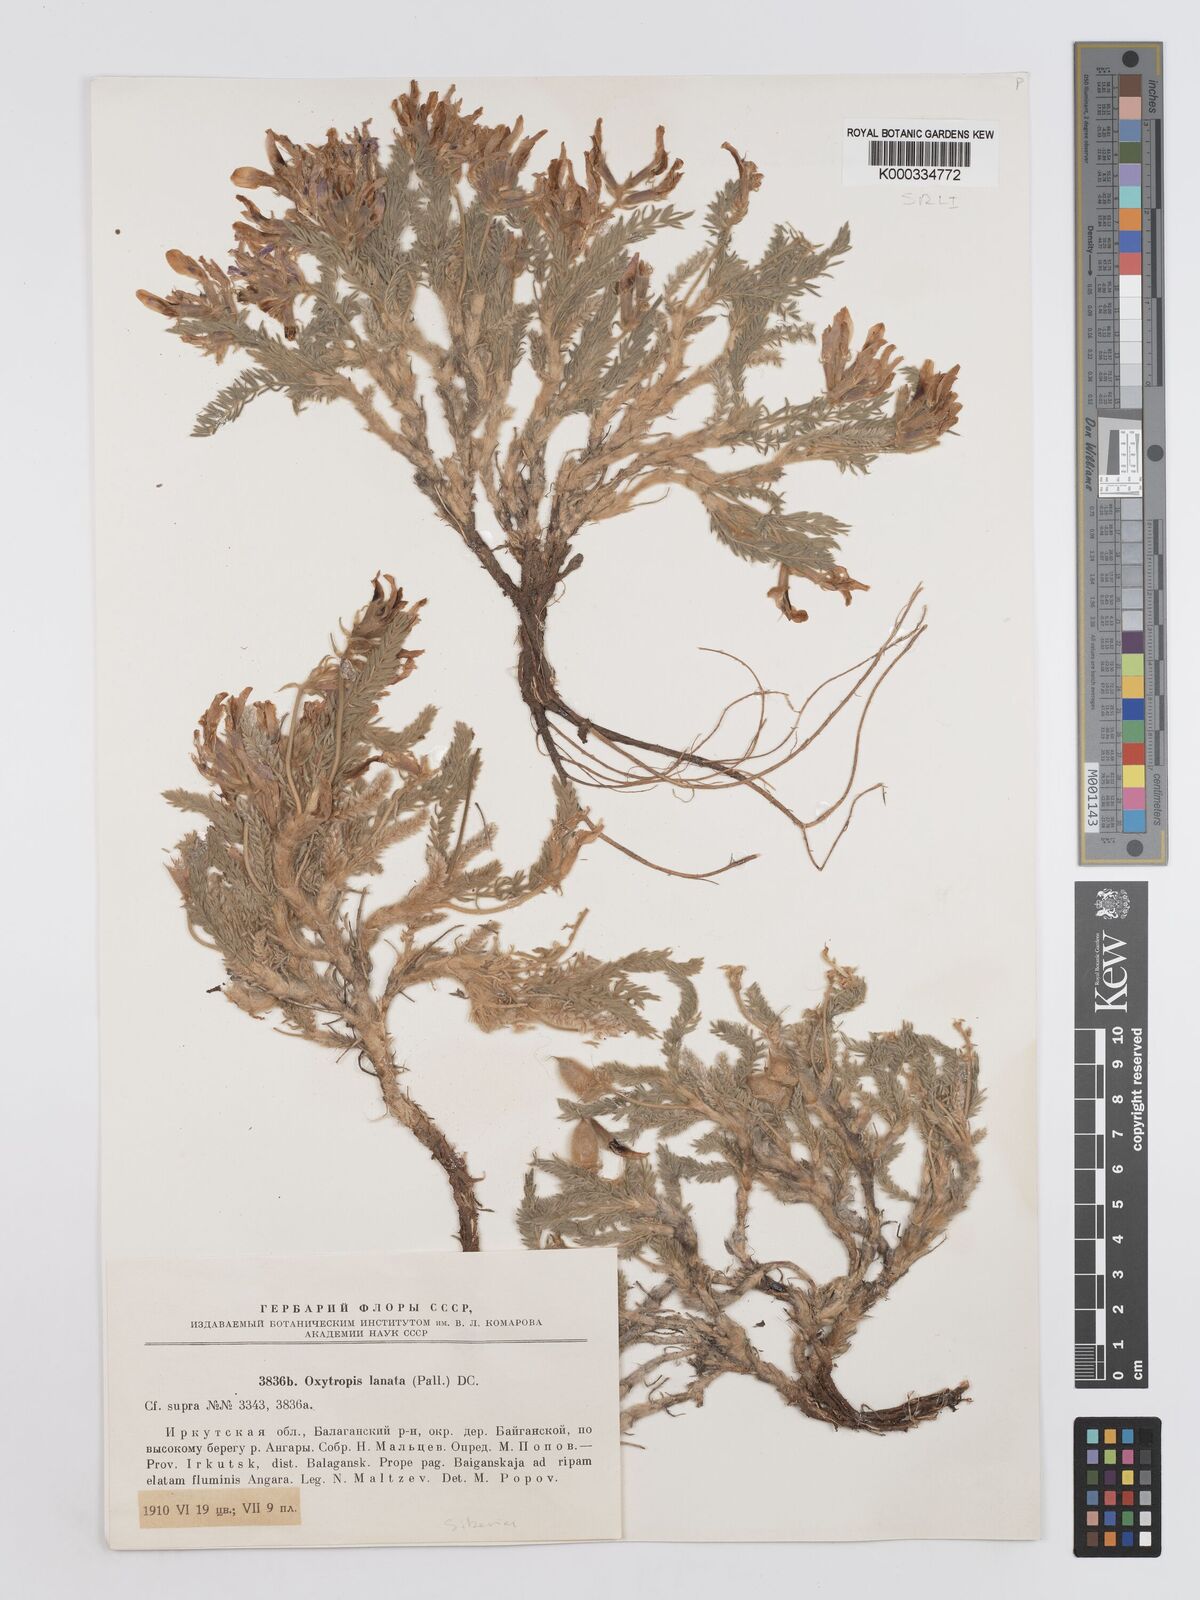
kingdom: Plantae
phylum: Tracheophyta
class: Magnoliopsida
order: Fabales
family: Fabaceae
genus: Oxytropis
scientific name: Oxytropis lanata
